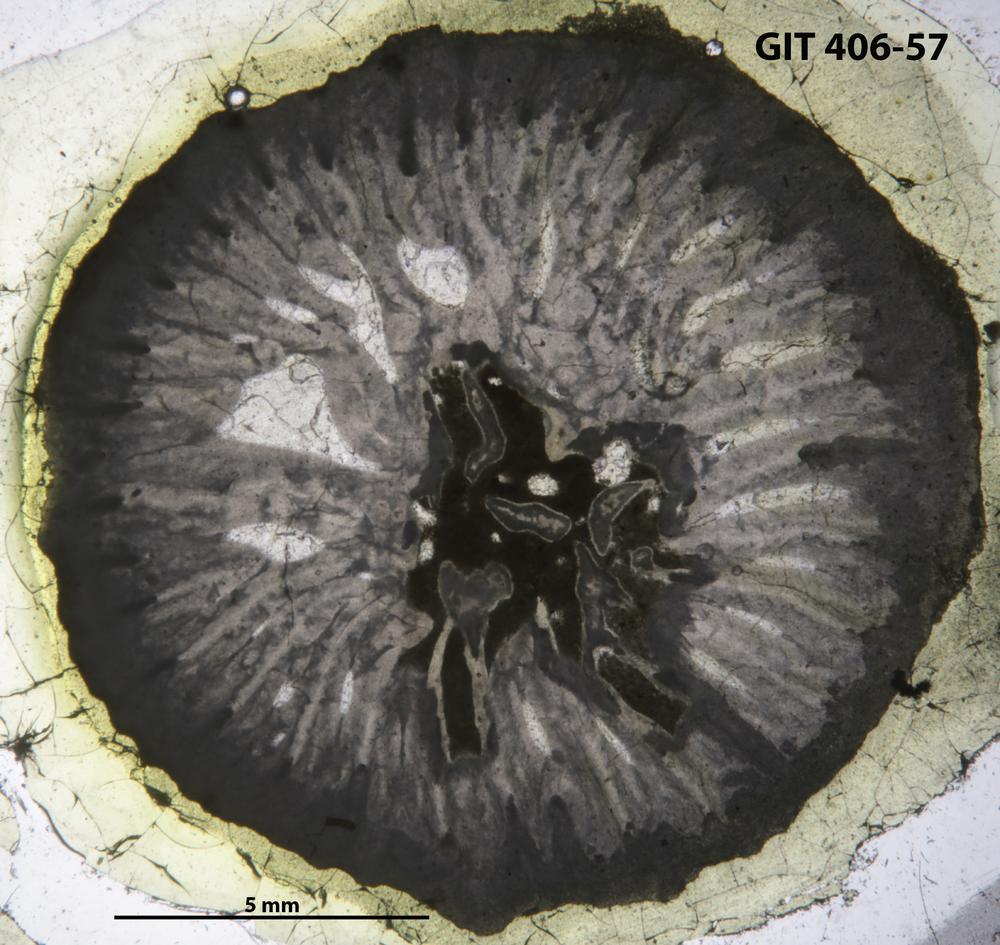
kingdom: Animalia
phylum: Cnidaria
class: Anthozoa
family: Streptelasmatidae
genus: Rectigrewingkia
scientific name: Rectigrewingkia Grewingkia anthelion
